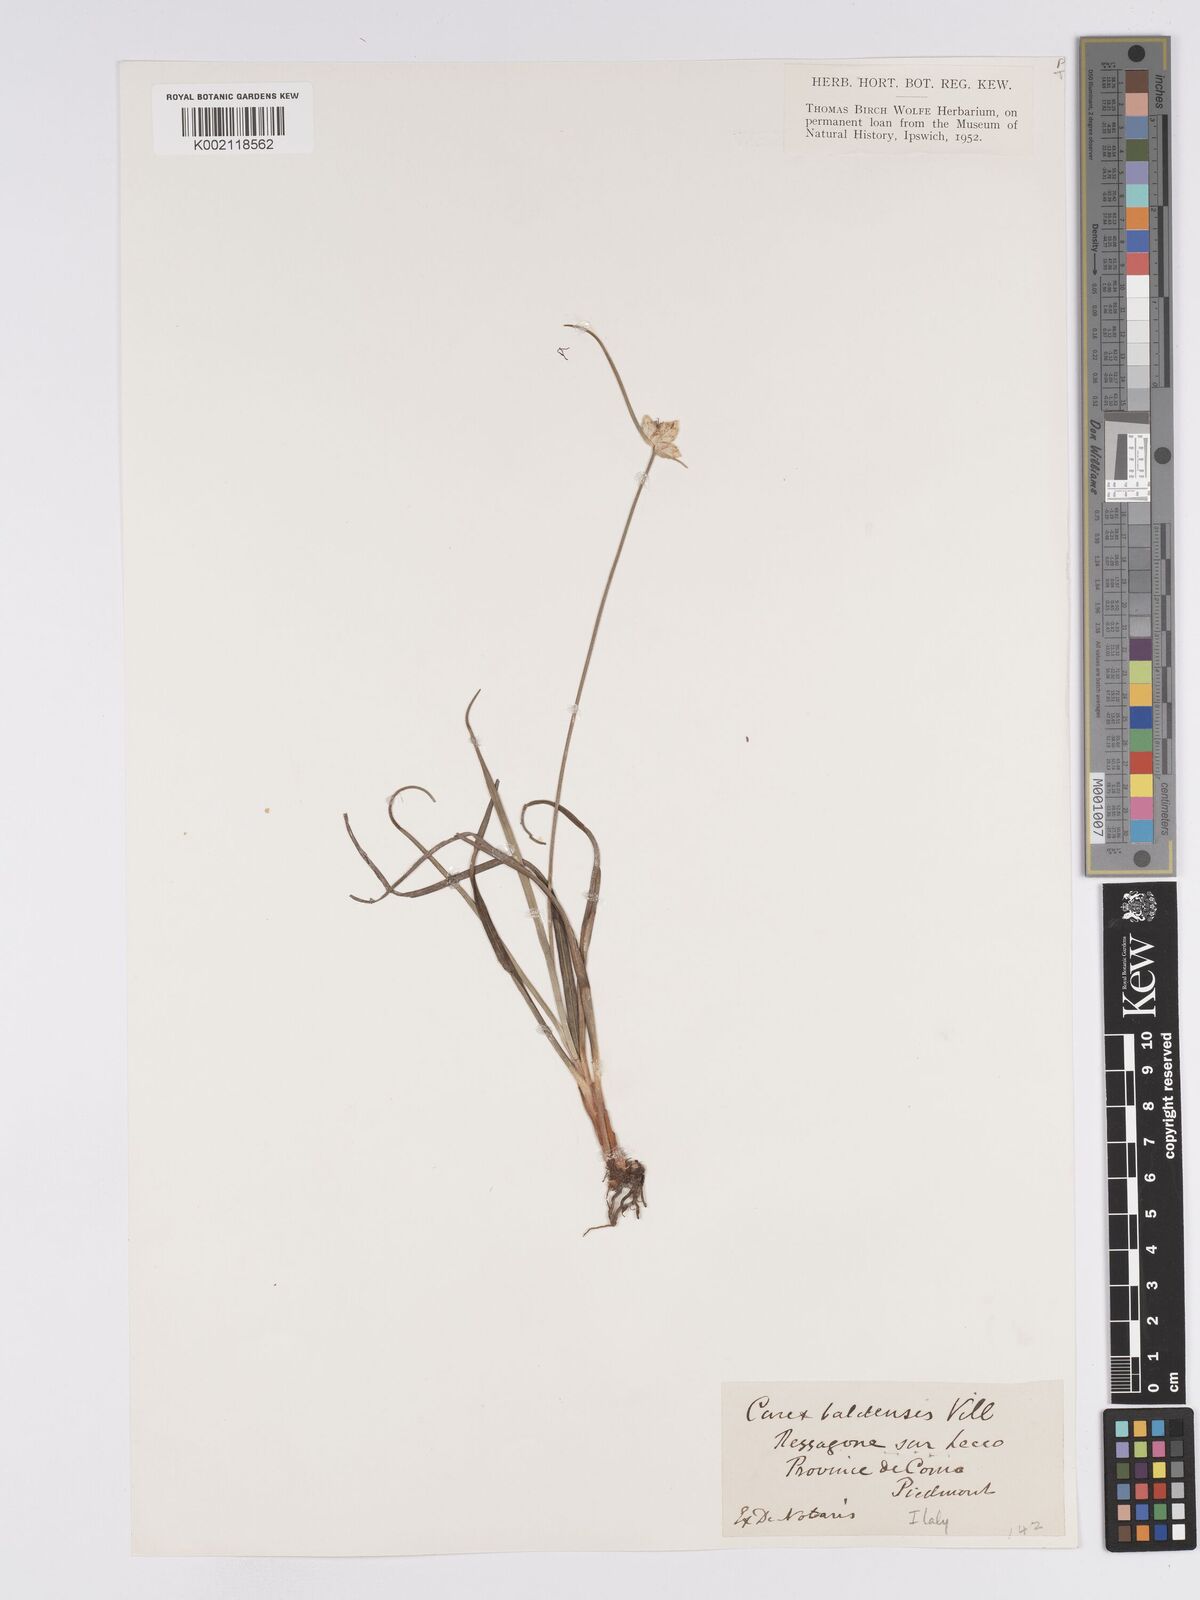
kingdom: Plantae
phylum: Tracheophyta
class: Liliopsida
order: Poales
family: Cyperaceae
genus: Carex
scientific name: Carex baldensis
